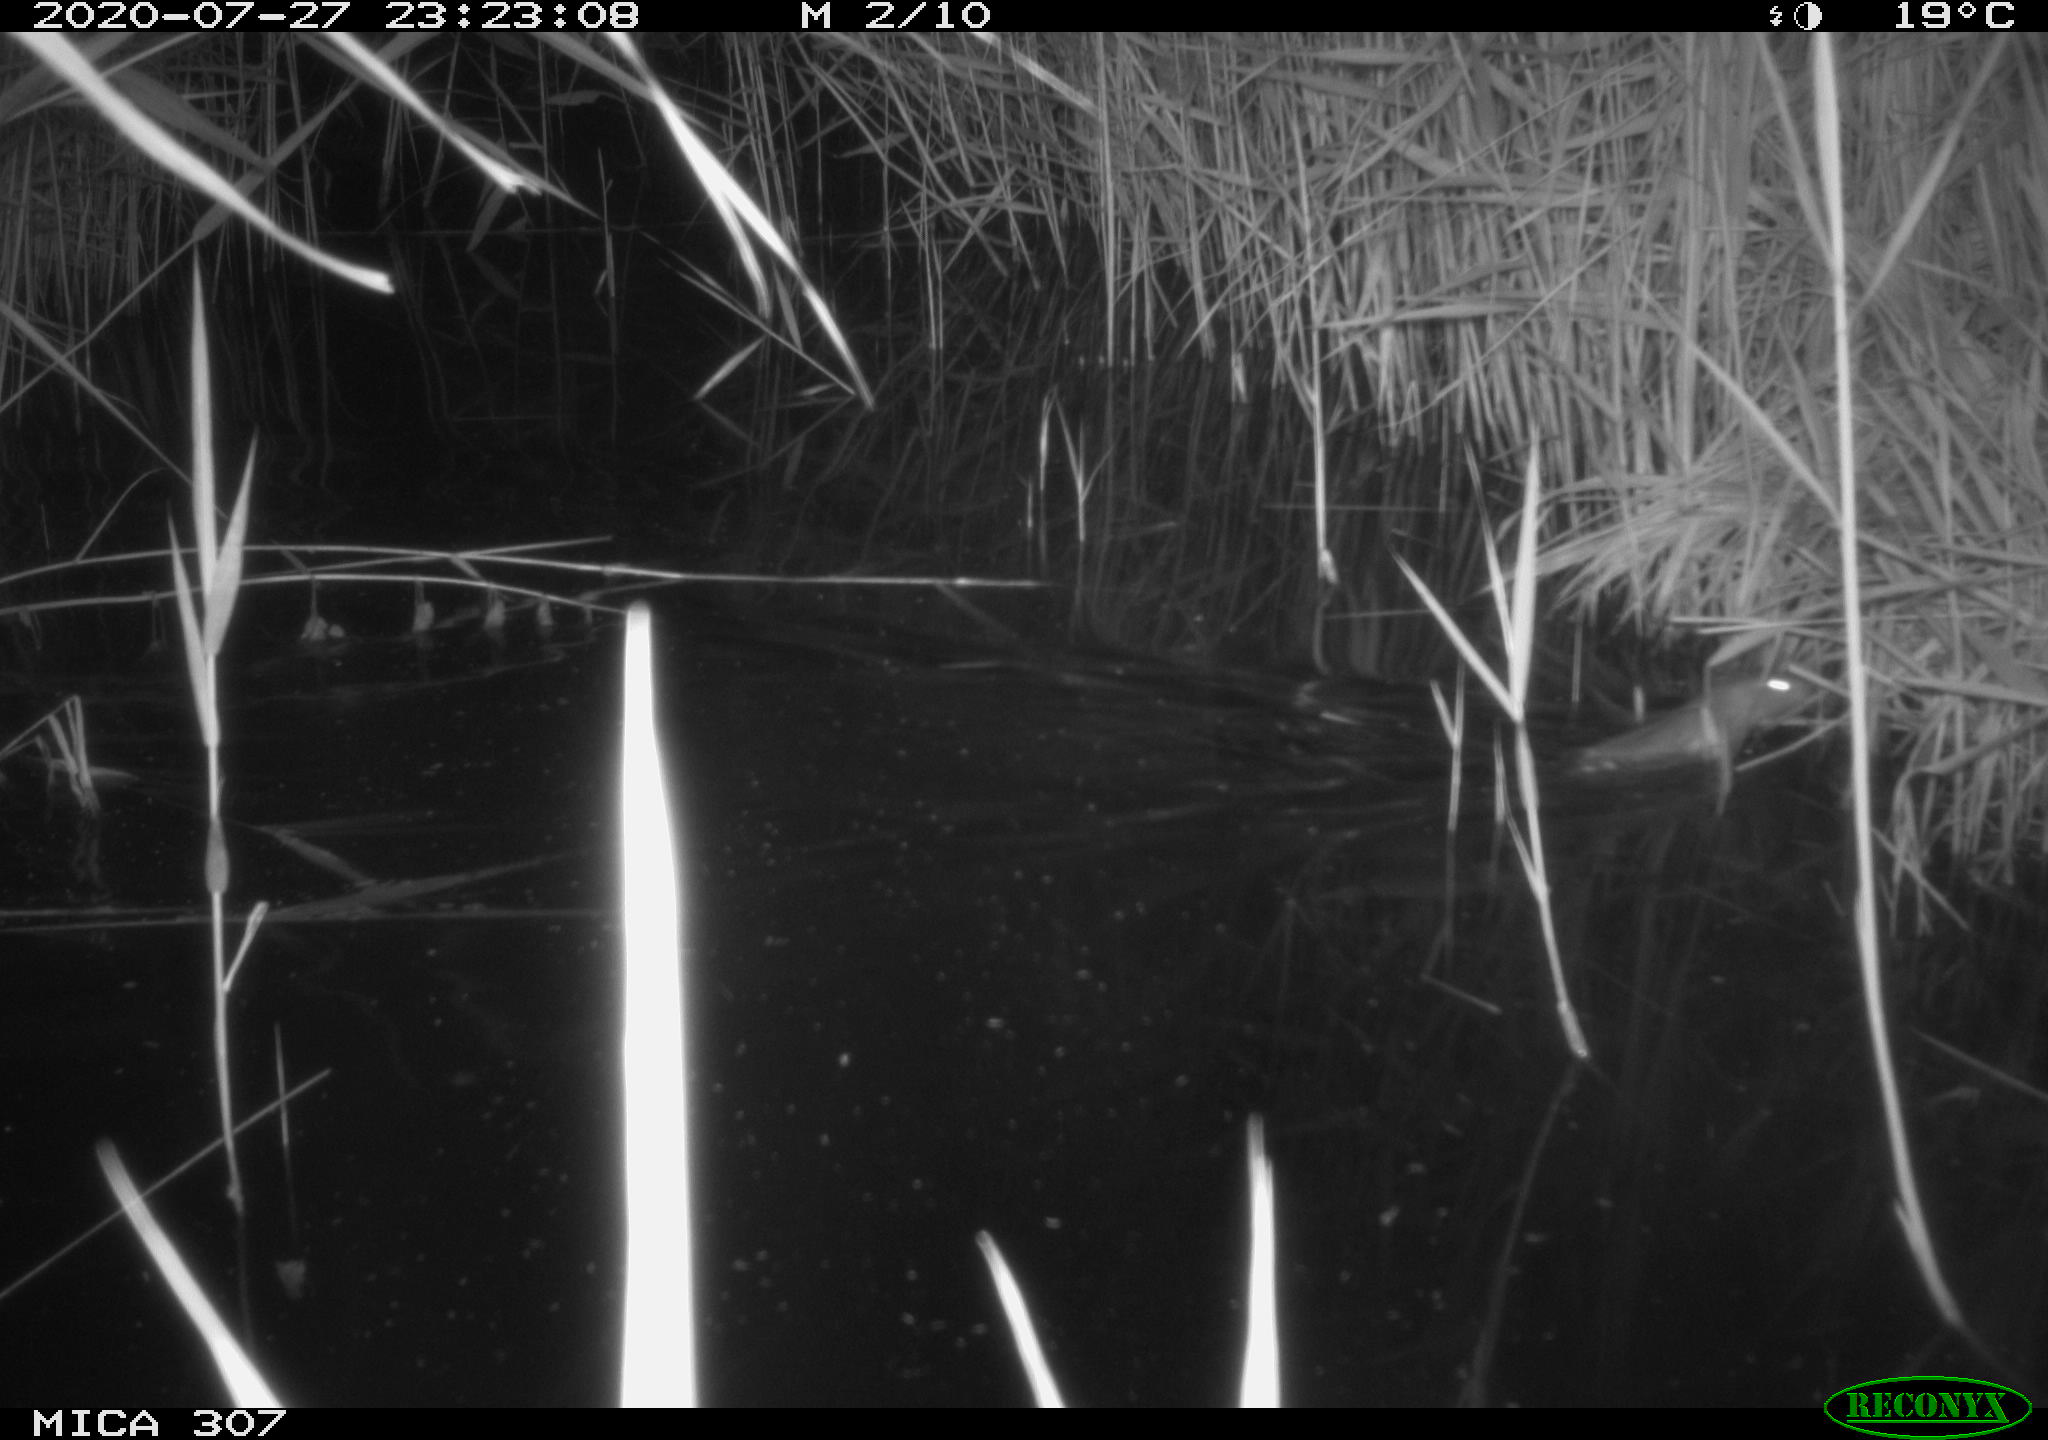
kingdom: Animalia
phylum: Chordata
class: Mammalia
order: Rodentia
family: Muridae
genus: Rattus
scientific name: Rattus norvegicus
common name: Brown rat
